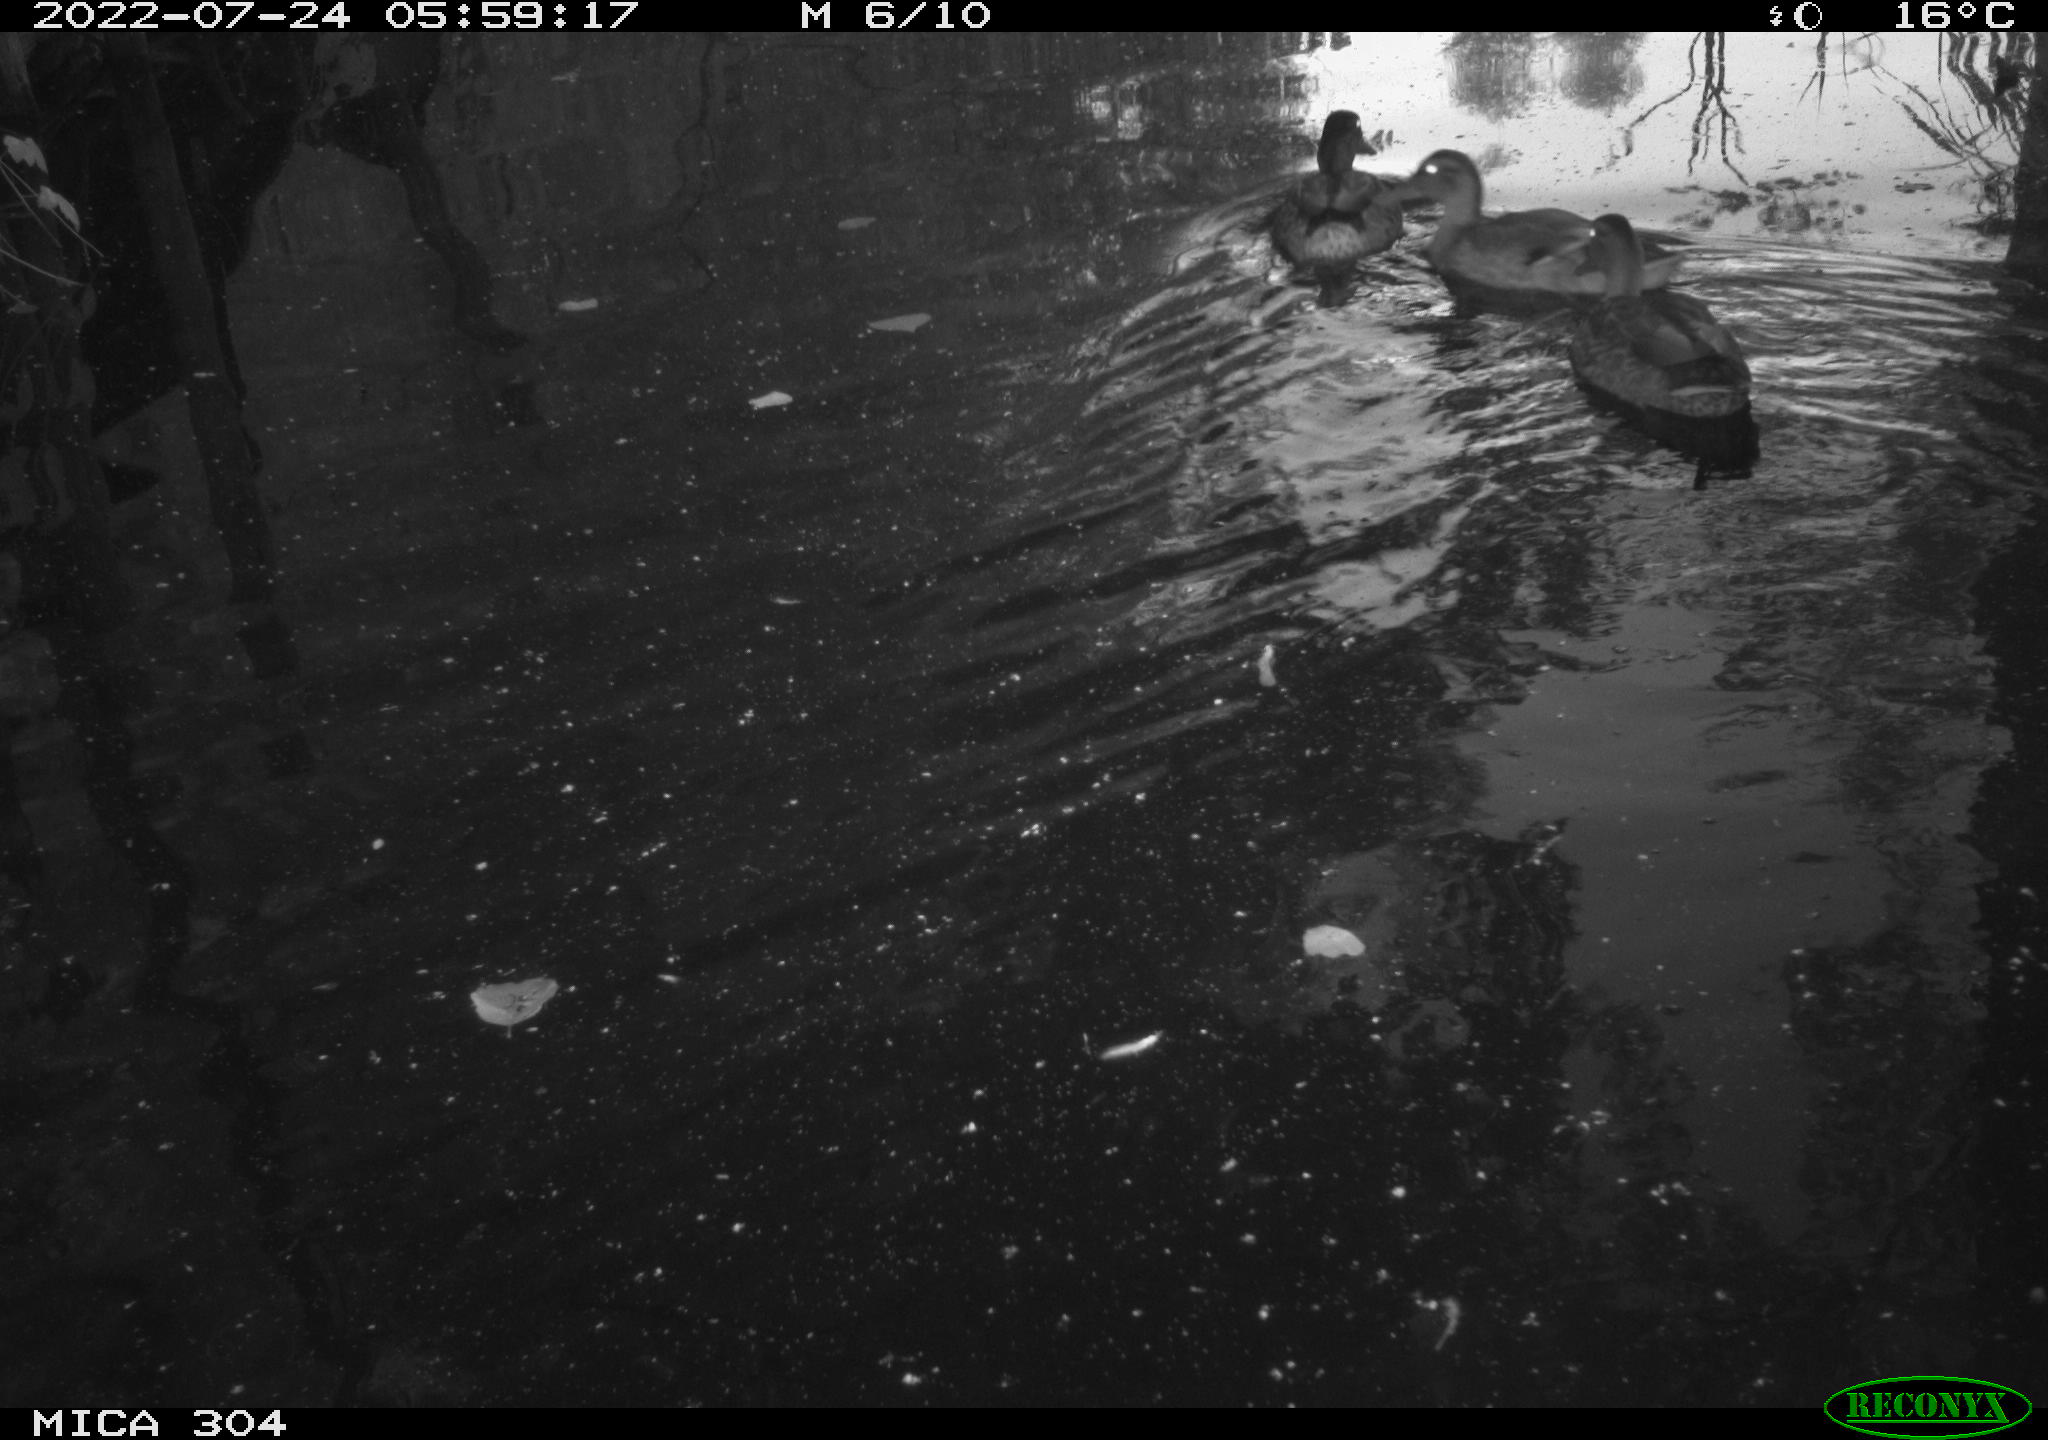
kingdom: Animalia
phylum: Chordata
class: Aves
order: Gruiformes
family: Rallidae
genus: Fulica
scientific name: Fulica atra
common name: Eurasian coot
